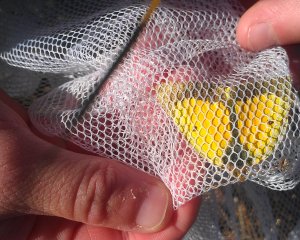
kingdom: Animalia
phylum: Arthropoda
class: Insecta
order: Lepidoptera
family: Pieridae
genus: Colias
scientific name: Colias eurytheme
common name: Orange Sulphur
